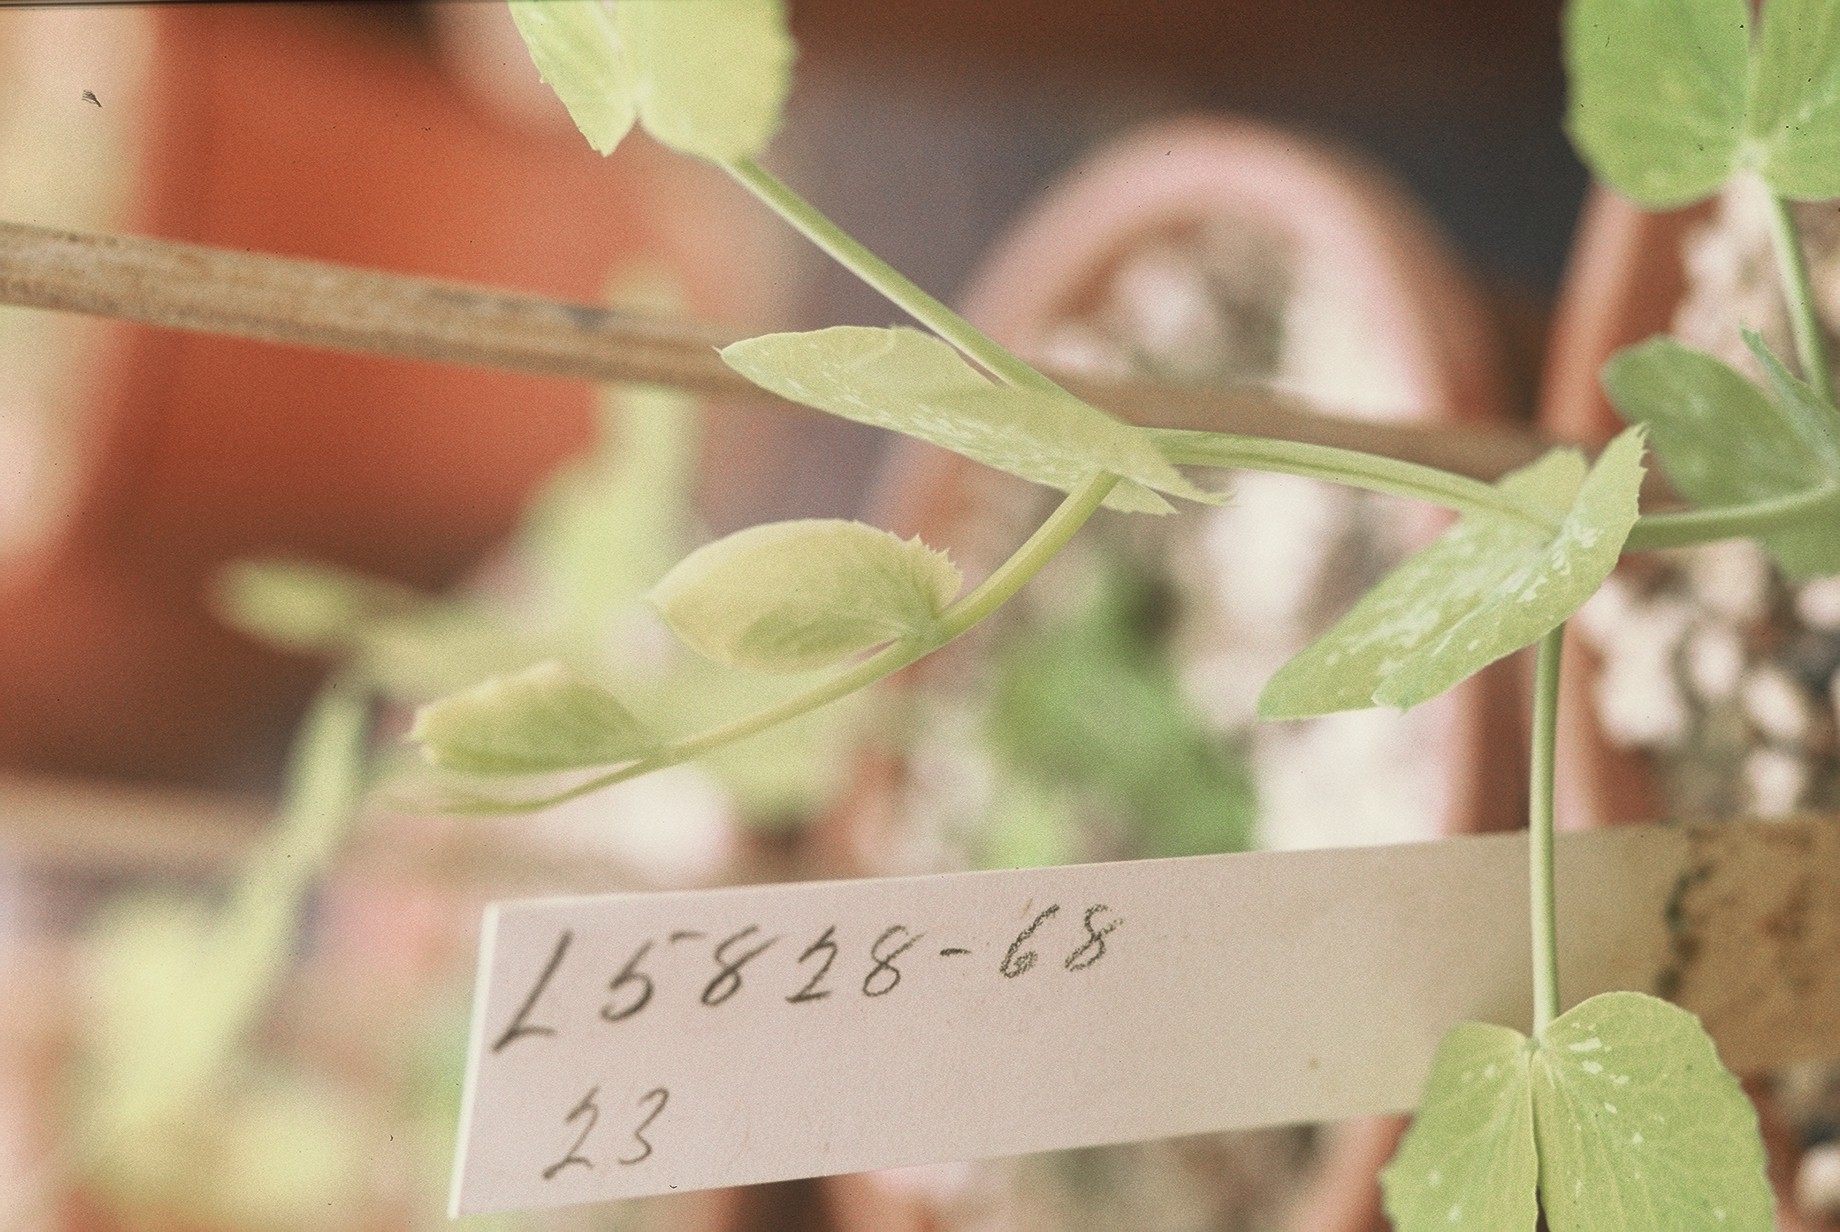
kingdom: Plantae
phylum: Tracheophyta
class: Magnoliopsida
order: Fabales
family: Fabaceae
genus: Lathyrus
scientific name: Lathyrus oleraceus
